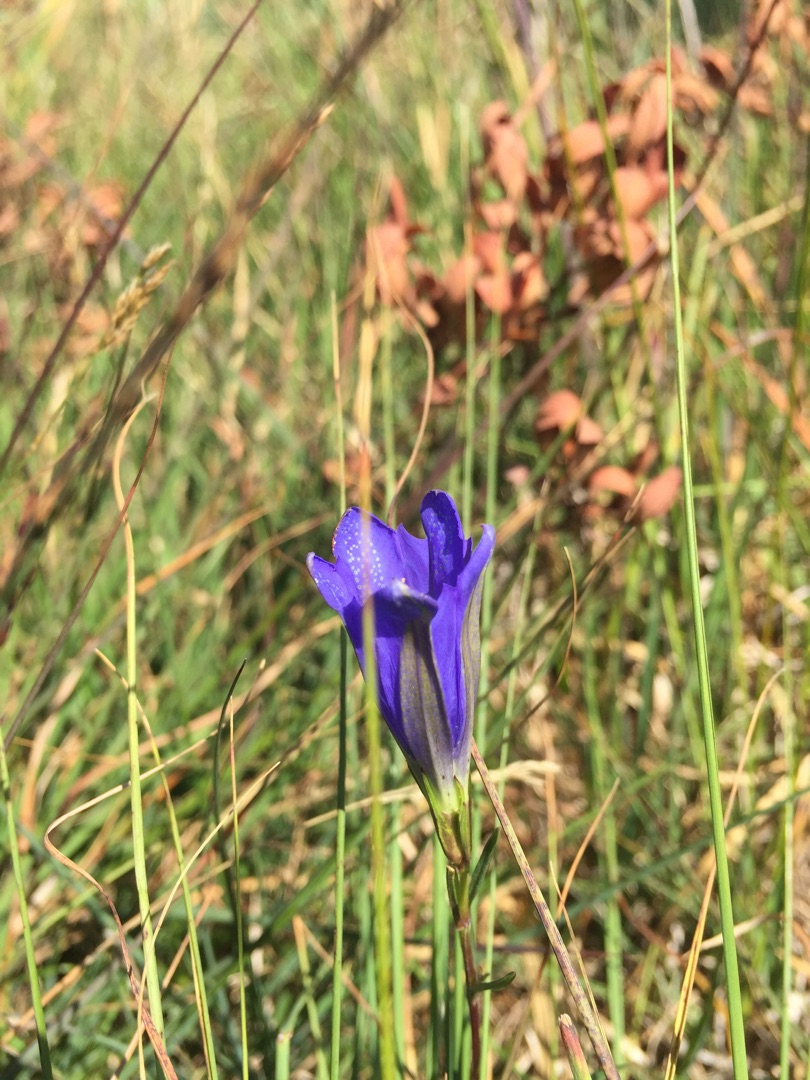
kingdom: Plantae
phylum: Tracheophyta
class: Magnoliopsida
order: Gentianales
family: Gentianaceae
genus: Gentiana
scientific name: Gentiana pneumonanthe
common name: Klokke-ensian
